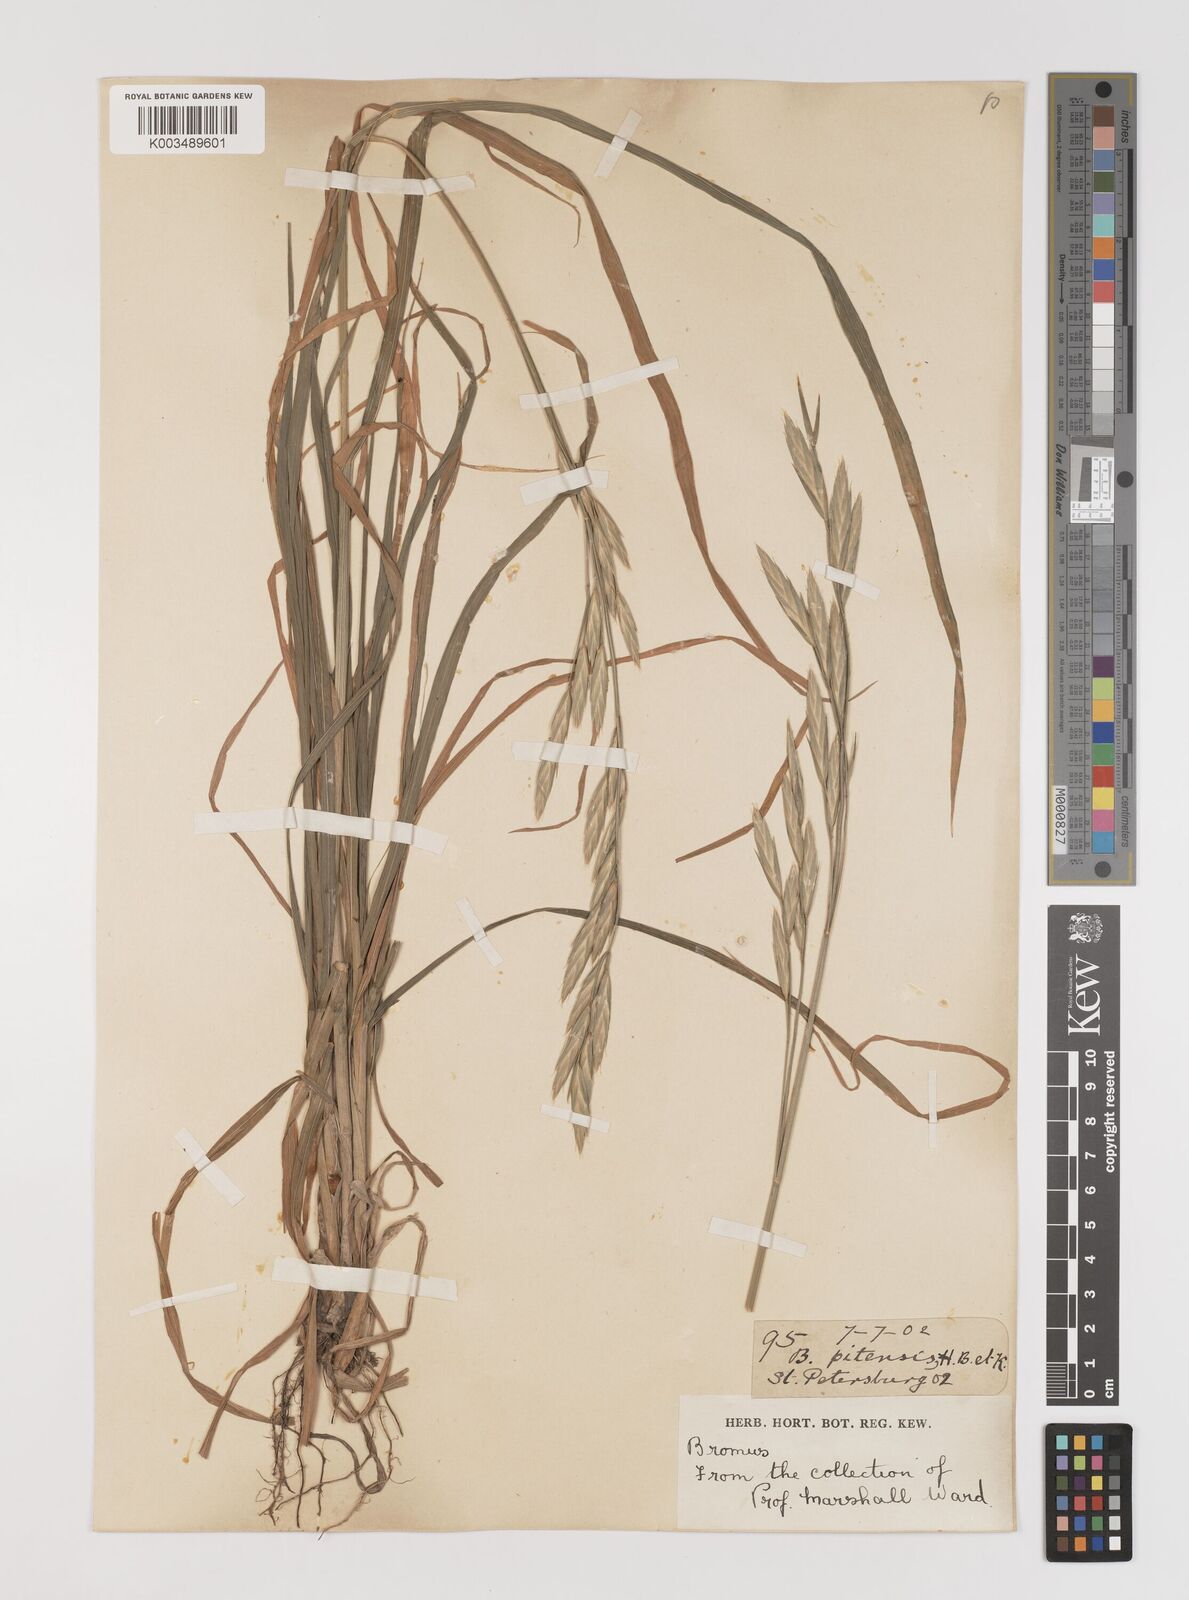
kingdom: Plantae
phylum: Tracheophyta
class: Liliopsida
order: Poales
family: Poaceae
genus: Bromus
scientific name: Bromus catharticus
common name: Rescuegrass
